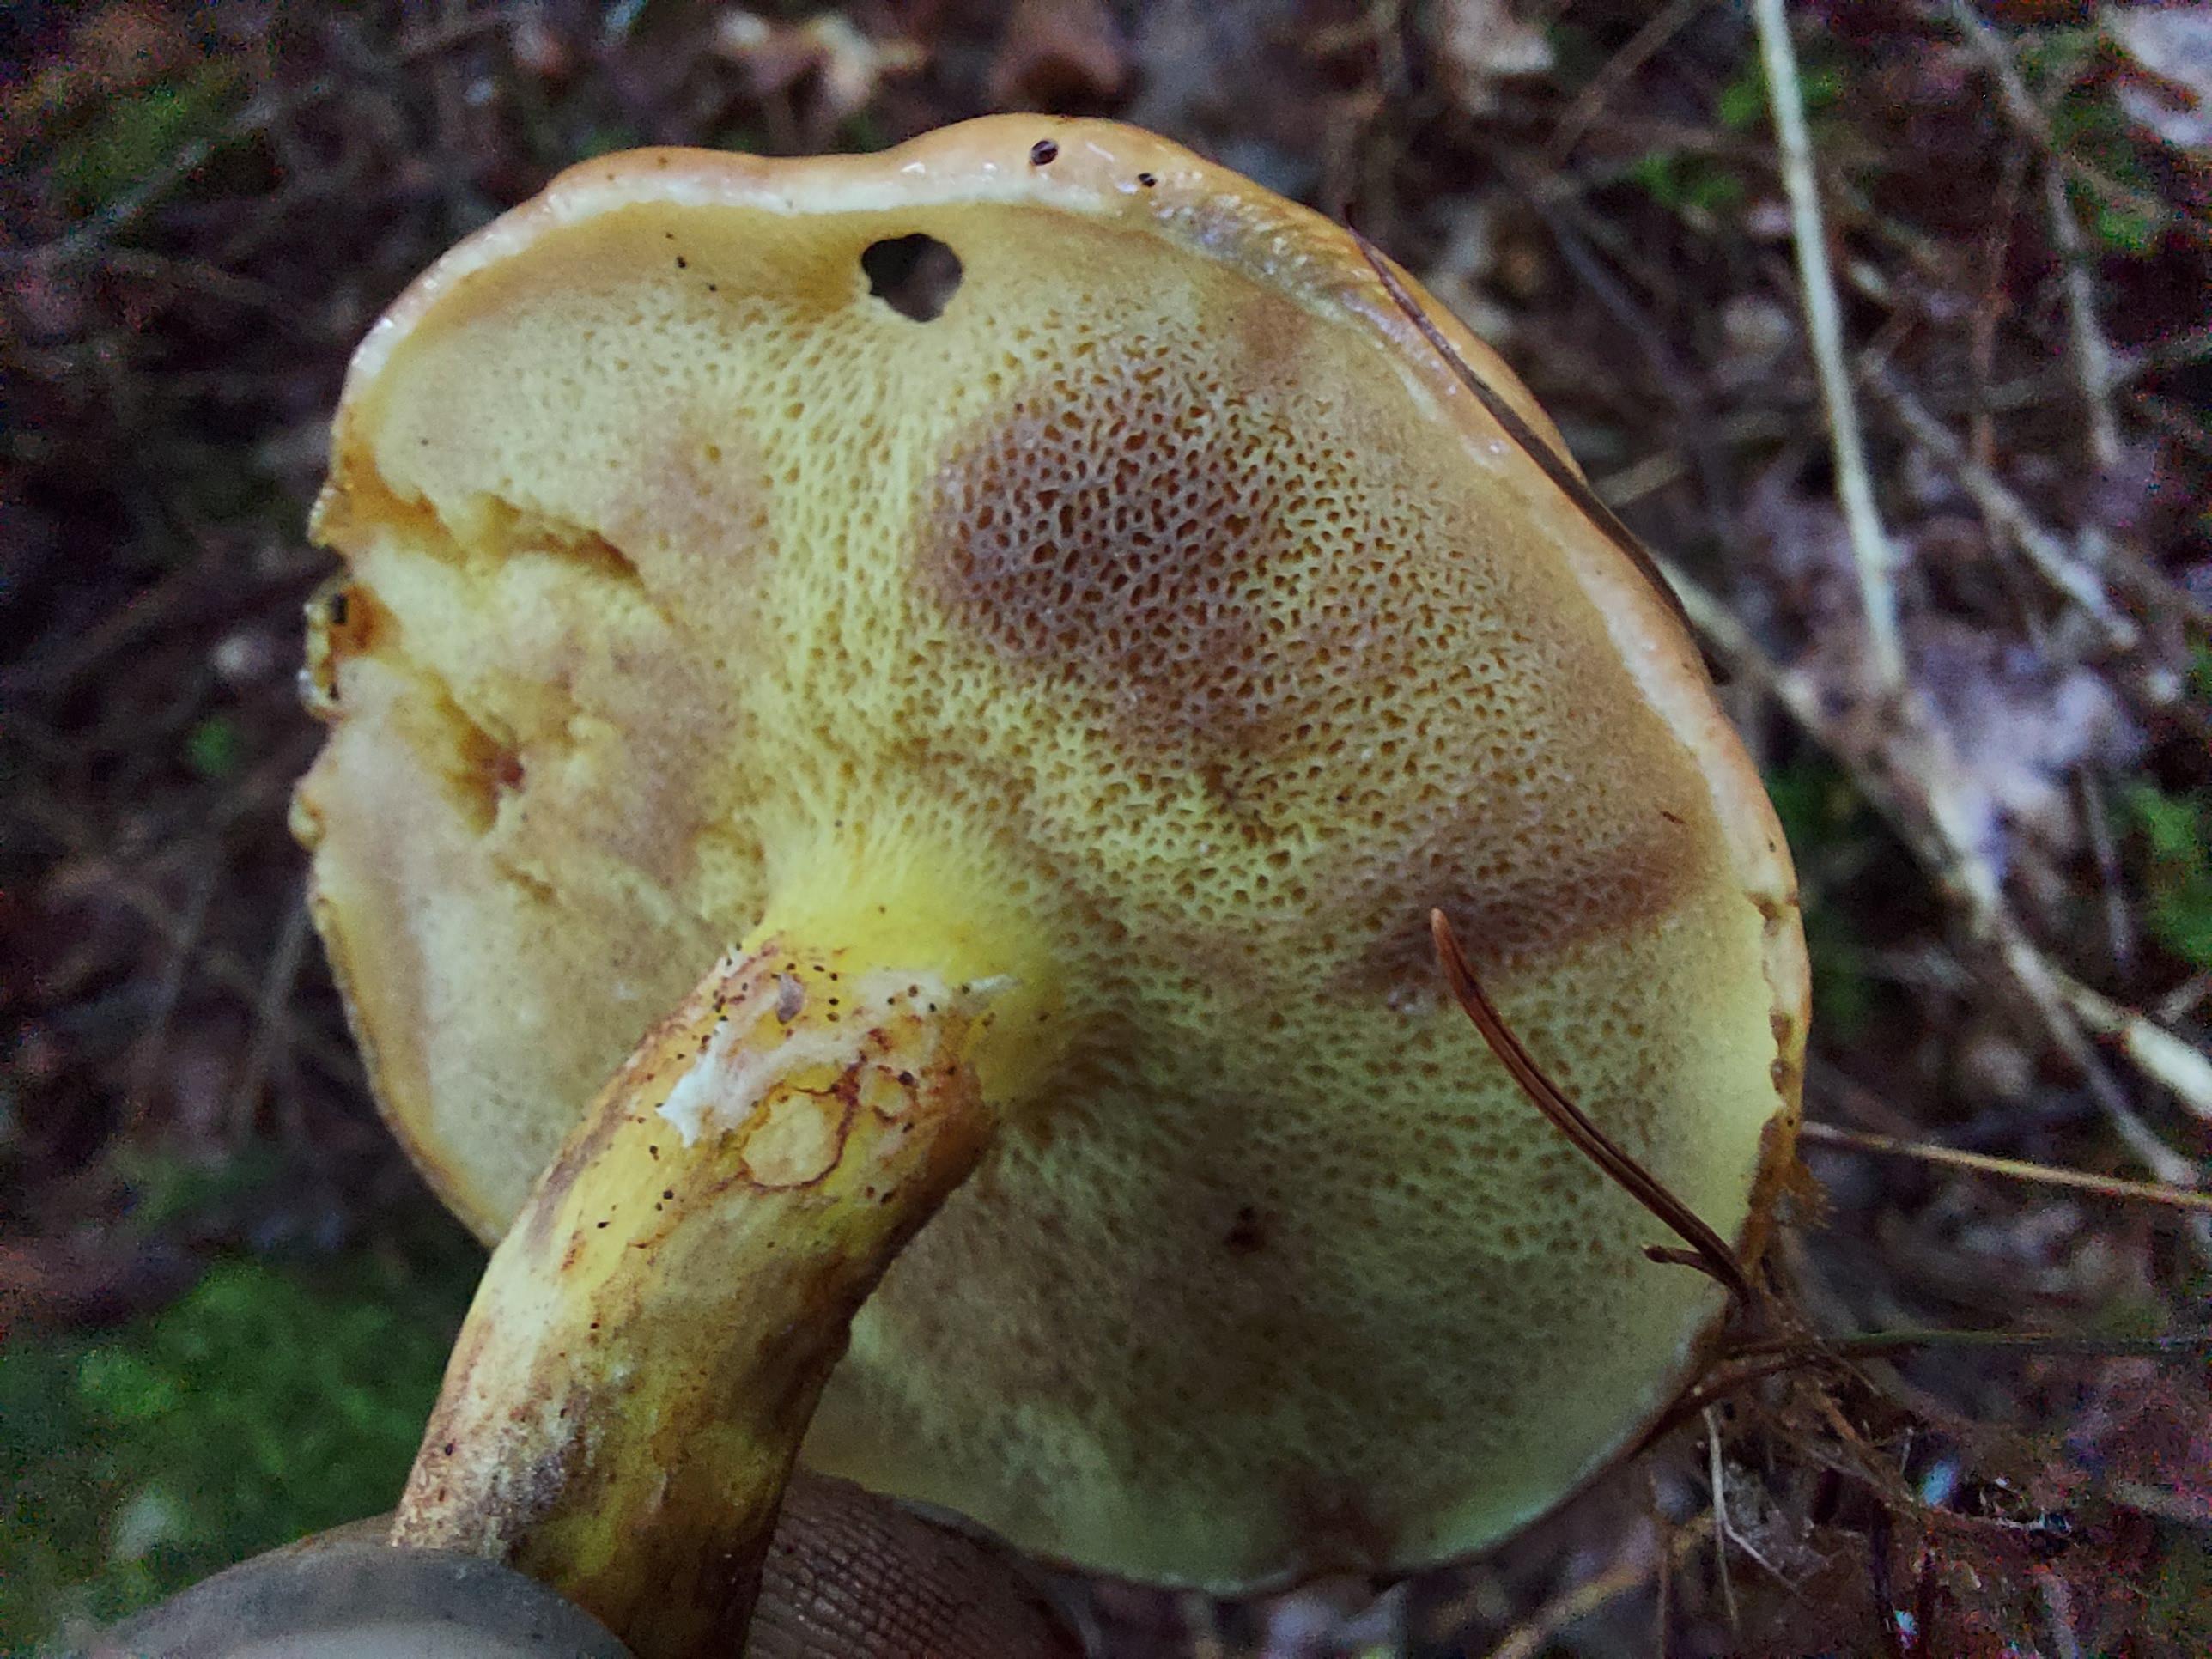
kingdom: Fungi
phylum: Basidiomycota
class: Agaricomycetes
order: Boletales
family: Suillaceae
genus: Suillus
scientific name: Suillus grevillei
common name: lærke-slimrørhat
